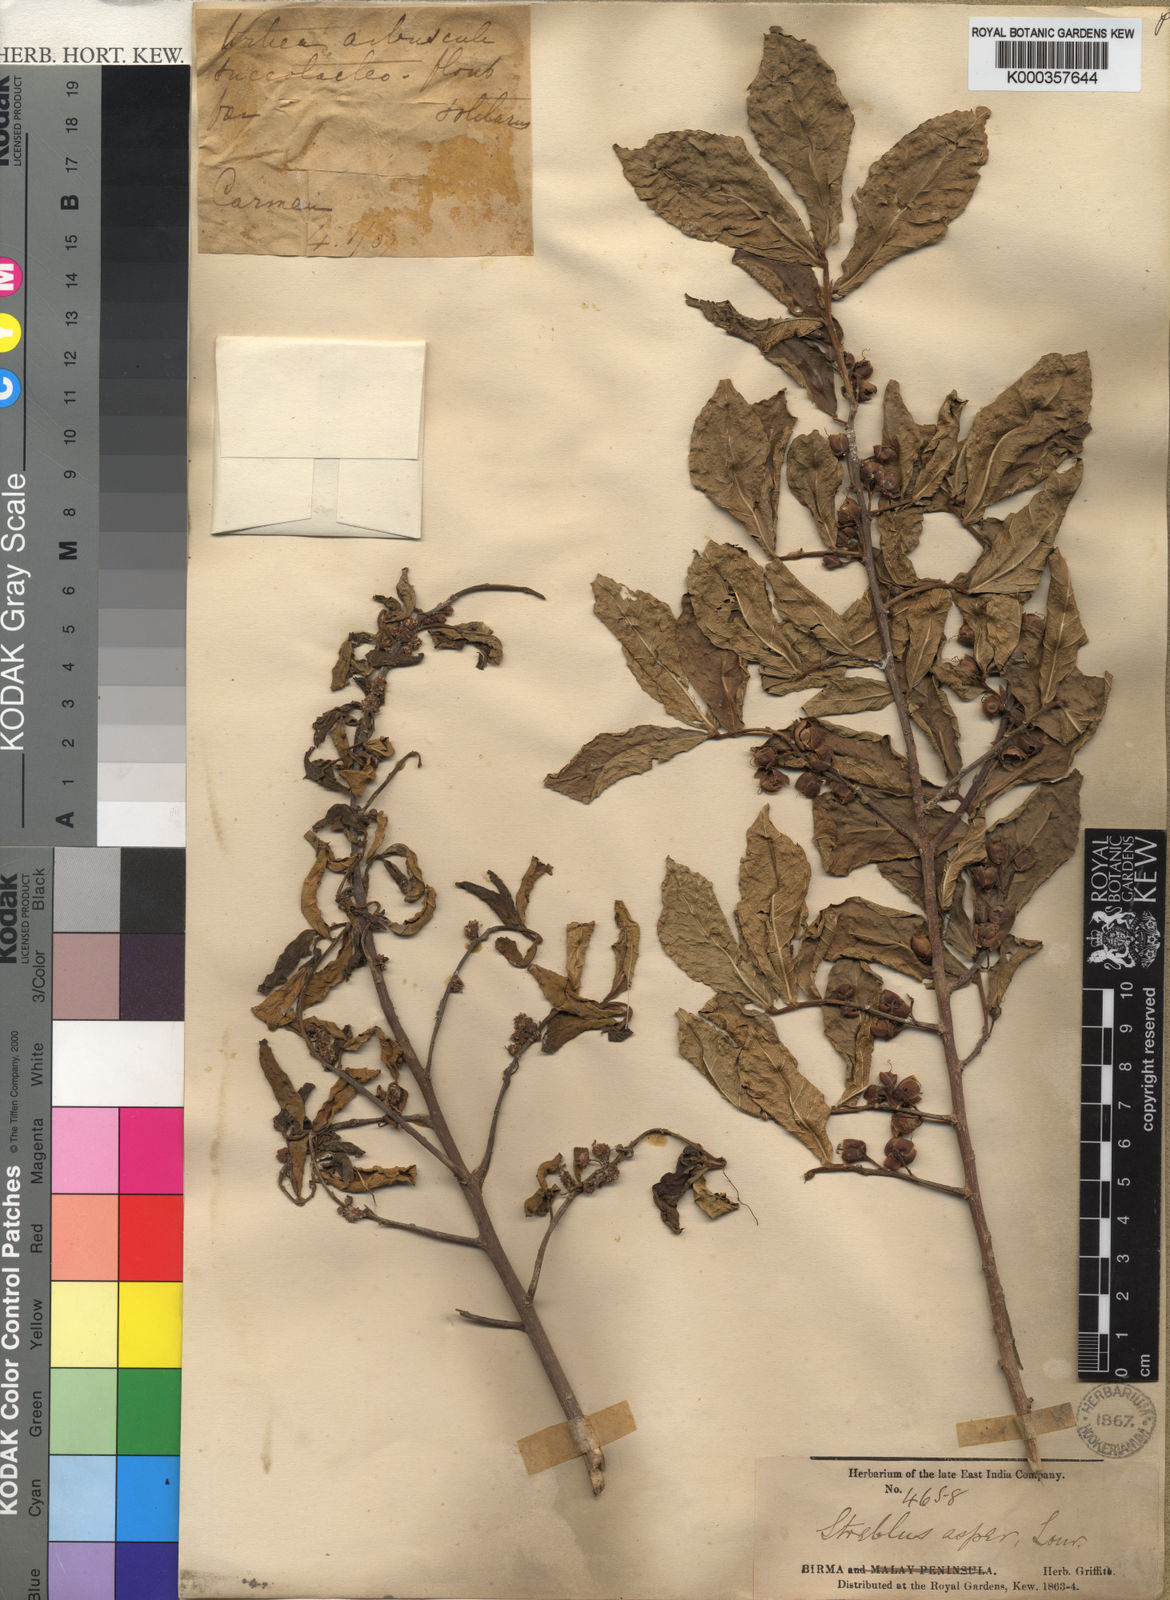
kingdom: Plantae
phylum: Tracheophyta
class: Magnoliopsida
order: Rosales
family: Moraceae
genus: Streblus
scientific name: Streblus asper
